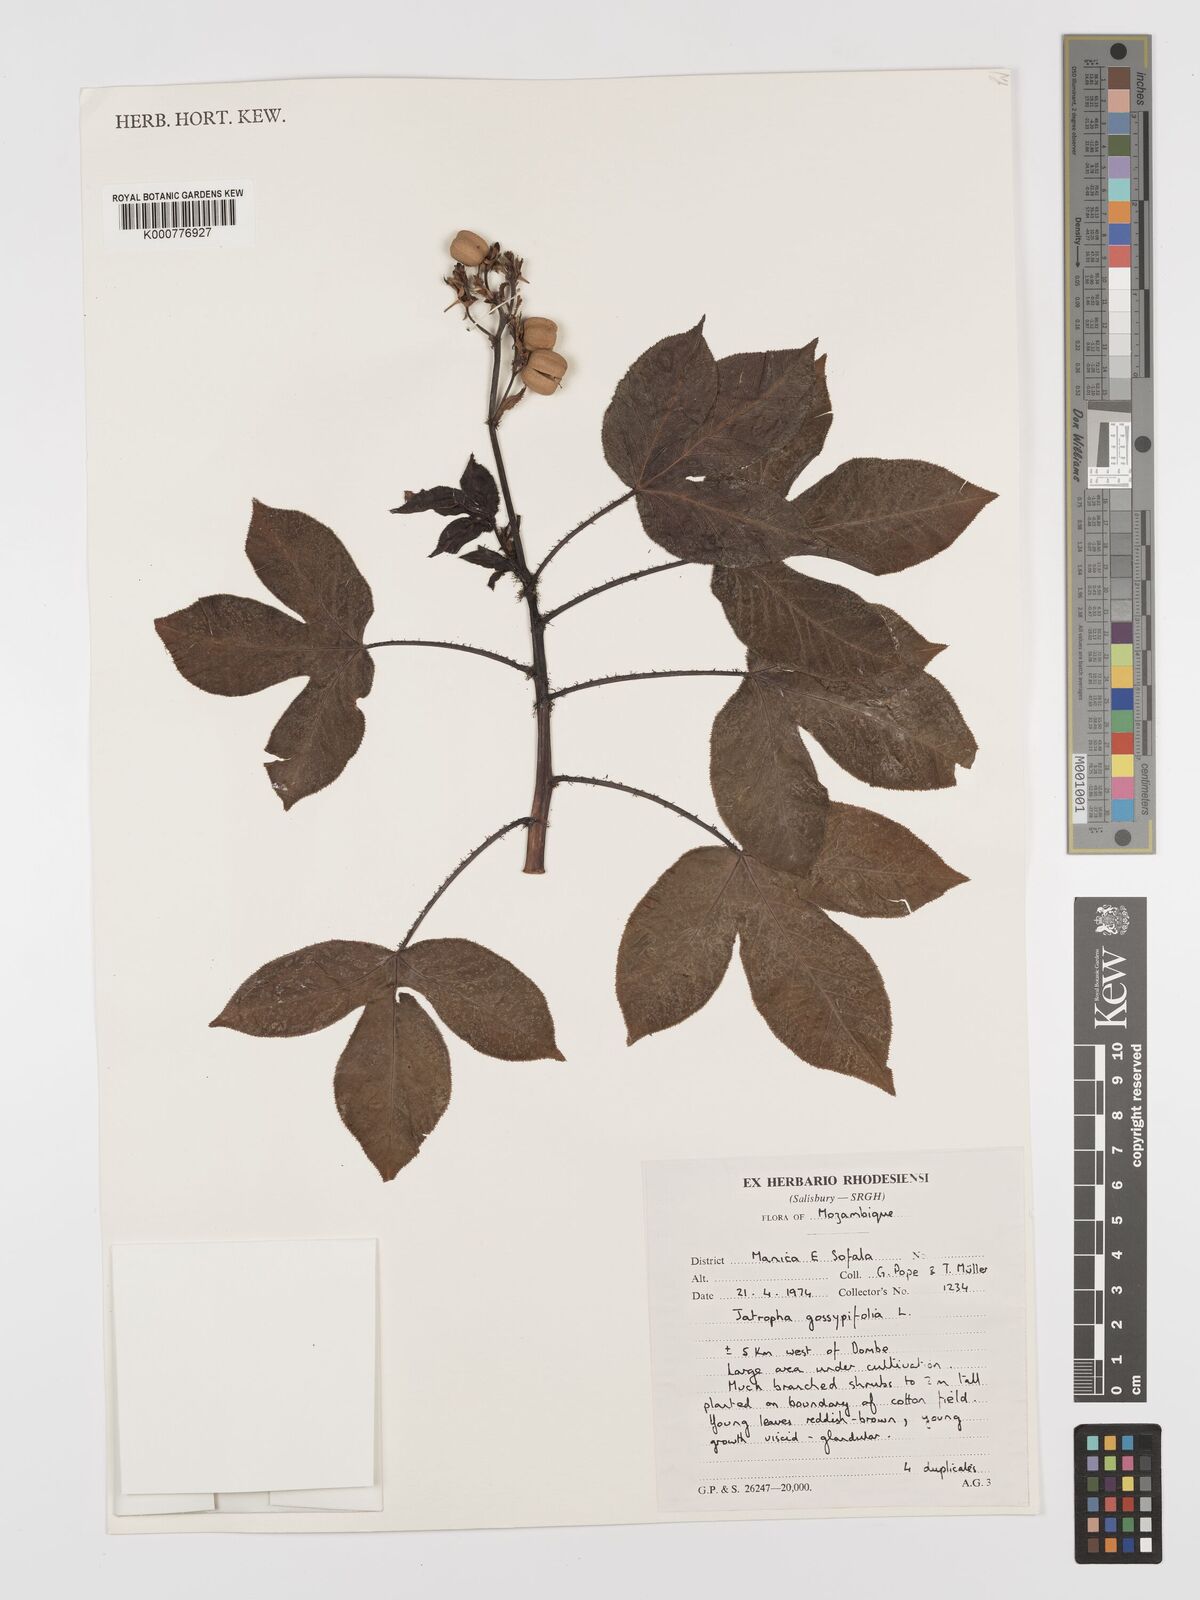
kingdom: Plantae
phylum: Tracheophyta
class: Magnoliopsida
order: Malpighiales
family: Euphorbiaceae
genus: Jatropha
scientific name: Jatropha gossypiifolia
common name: Bellyache bush
